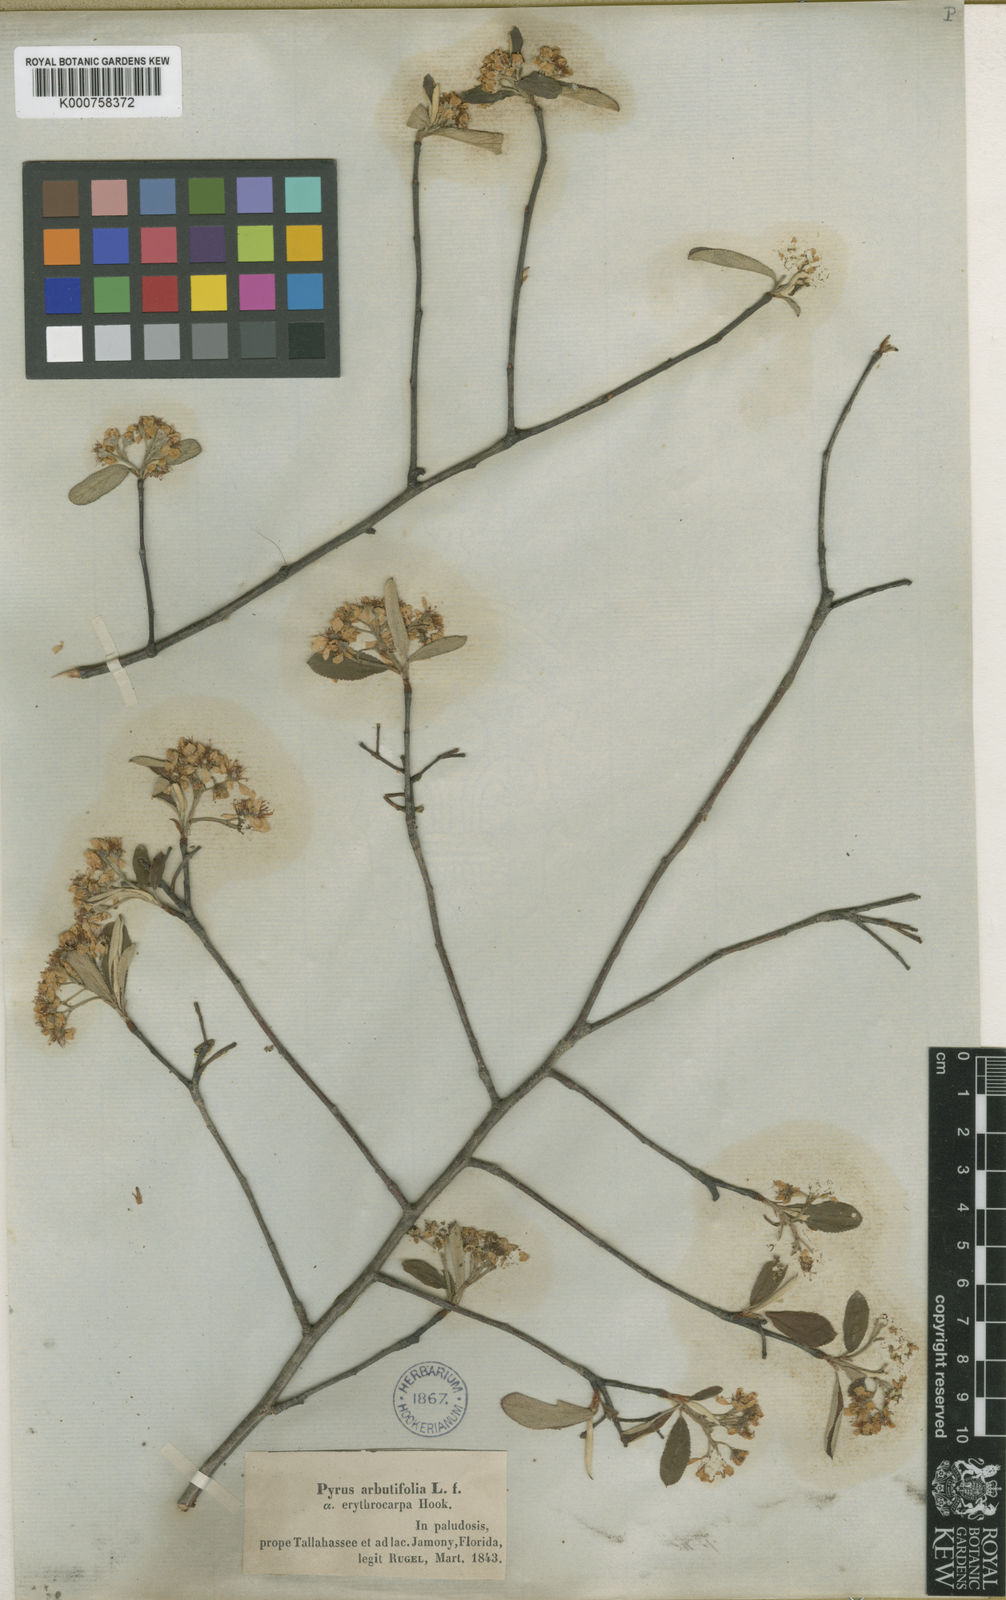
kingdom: Plantae
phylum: Tracheophyta
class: Magnoliopsida
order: Rosales
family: Rosaceae
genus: Heteromeles
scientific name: Heteromeles arbutifolia
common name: California-holly
